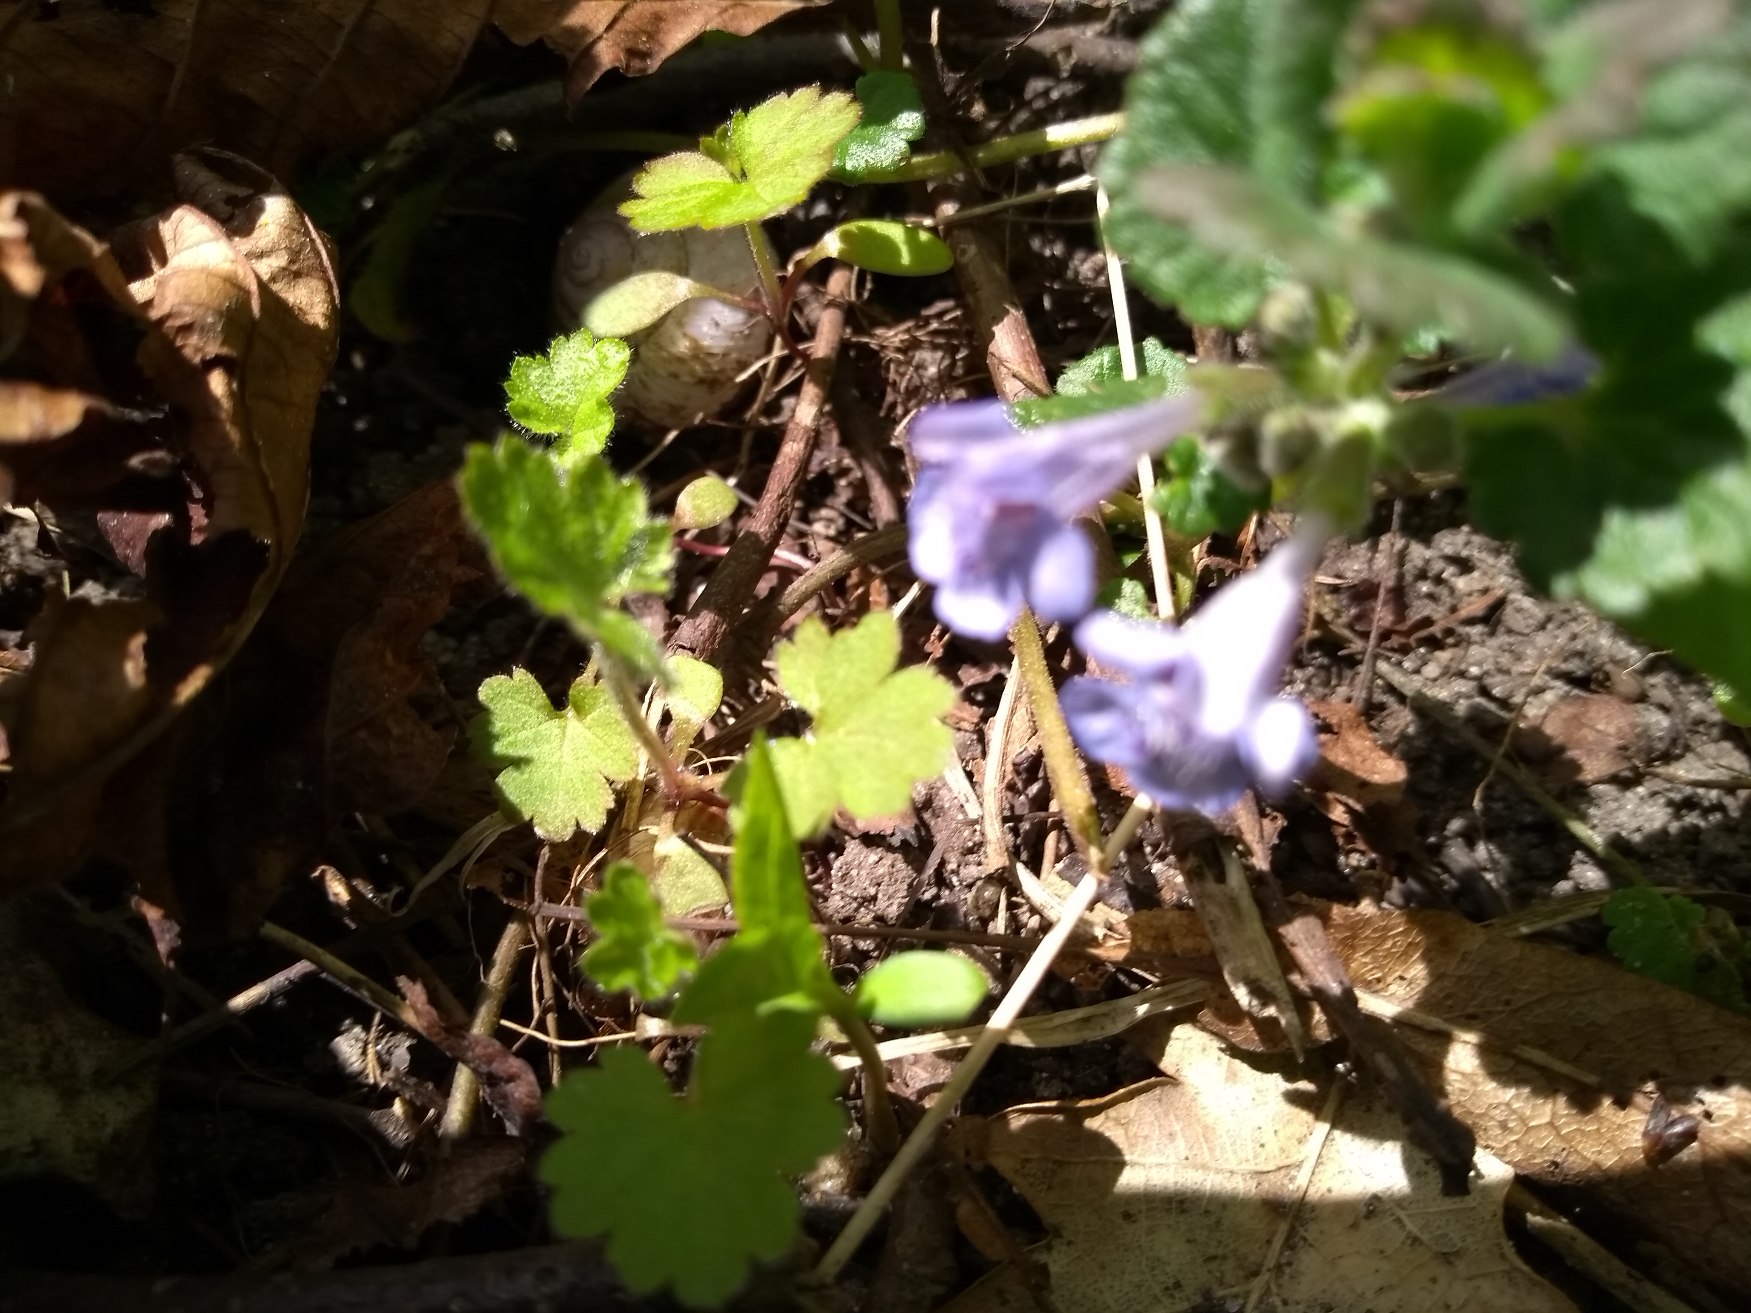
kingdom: Plantae
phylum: Tracheophyta
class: Magnoliopsida
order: Lamiales
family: Lamiaceae
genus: Glechoma
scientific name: Glechoma hederacea
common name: Korsknap
